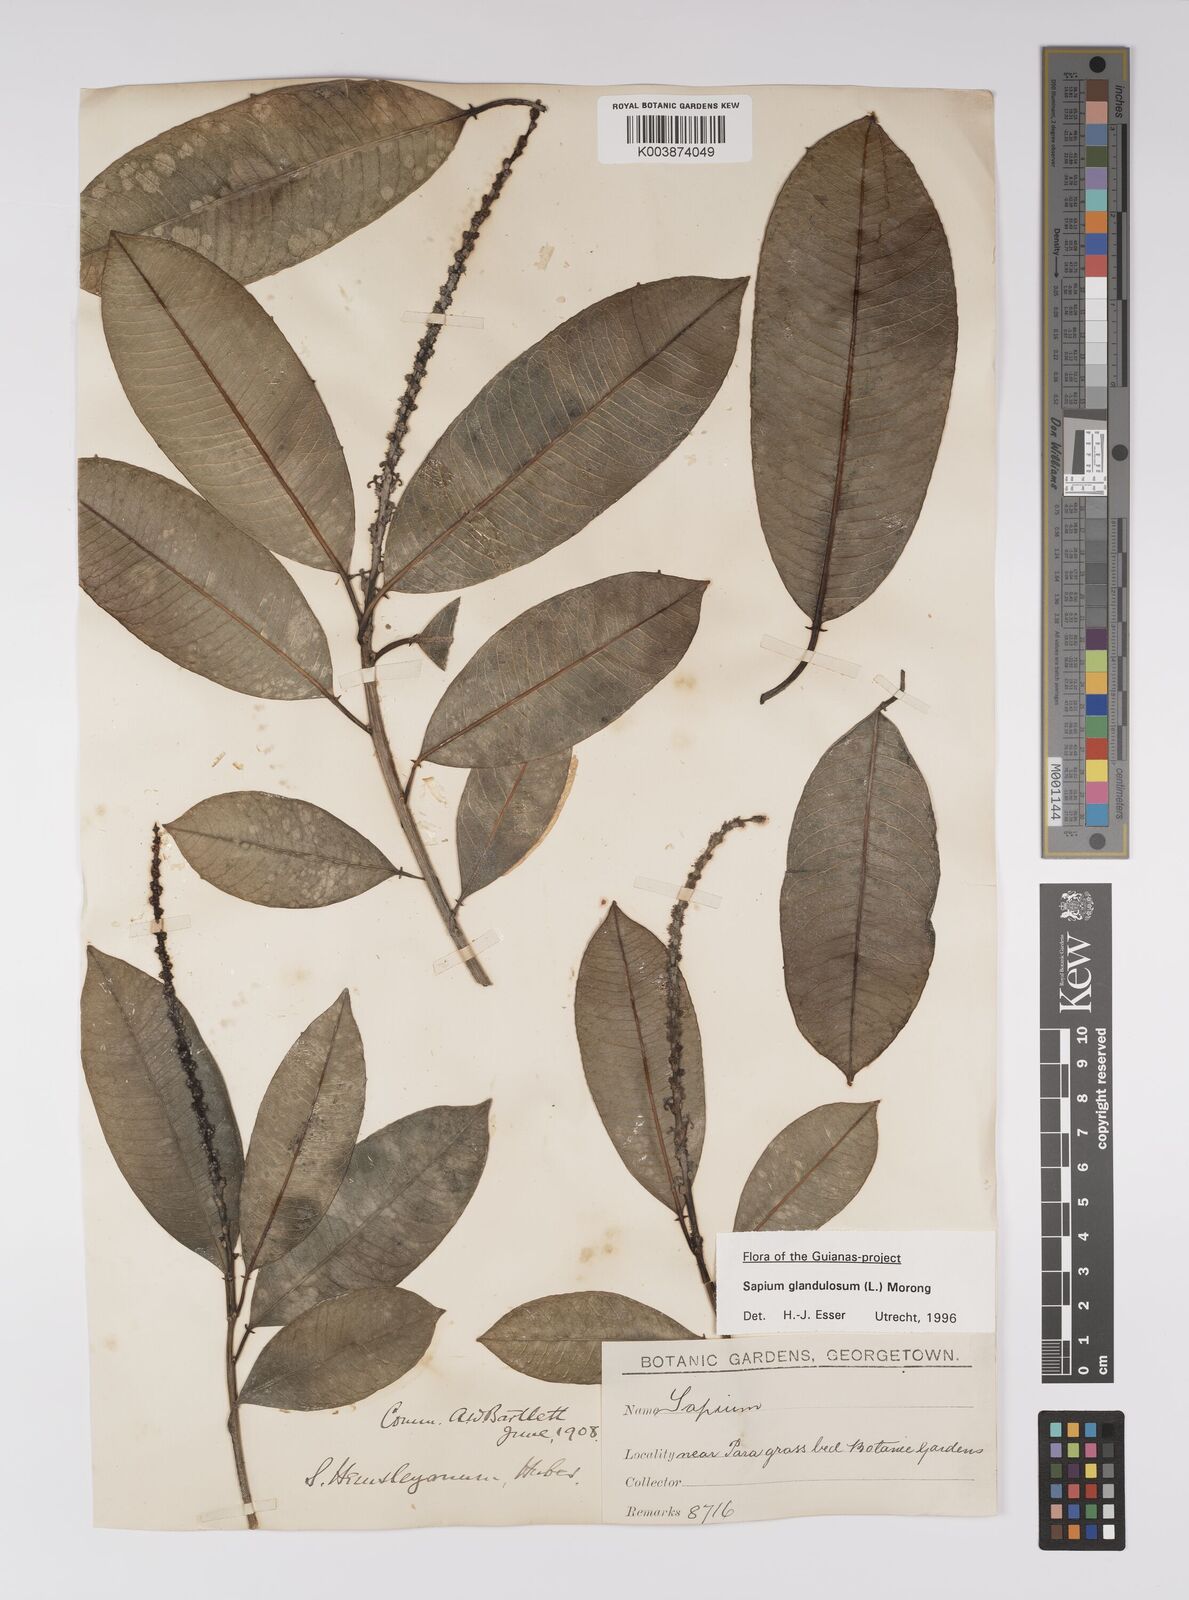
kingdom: Plantae
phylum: Tracheophyta
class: Magnoliopsida
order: Malpighiales
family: Euphorbiaceae
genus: Sapium
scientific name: Sapium glandulosum
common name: Milktree
